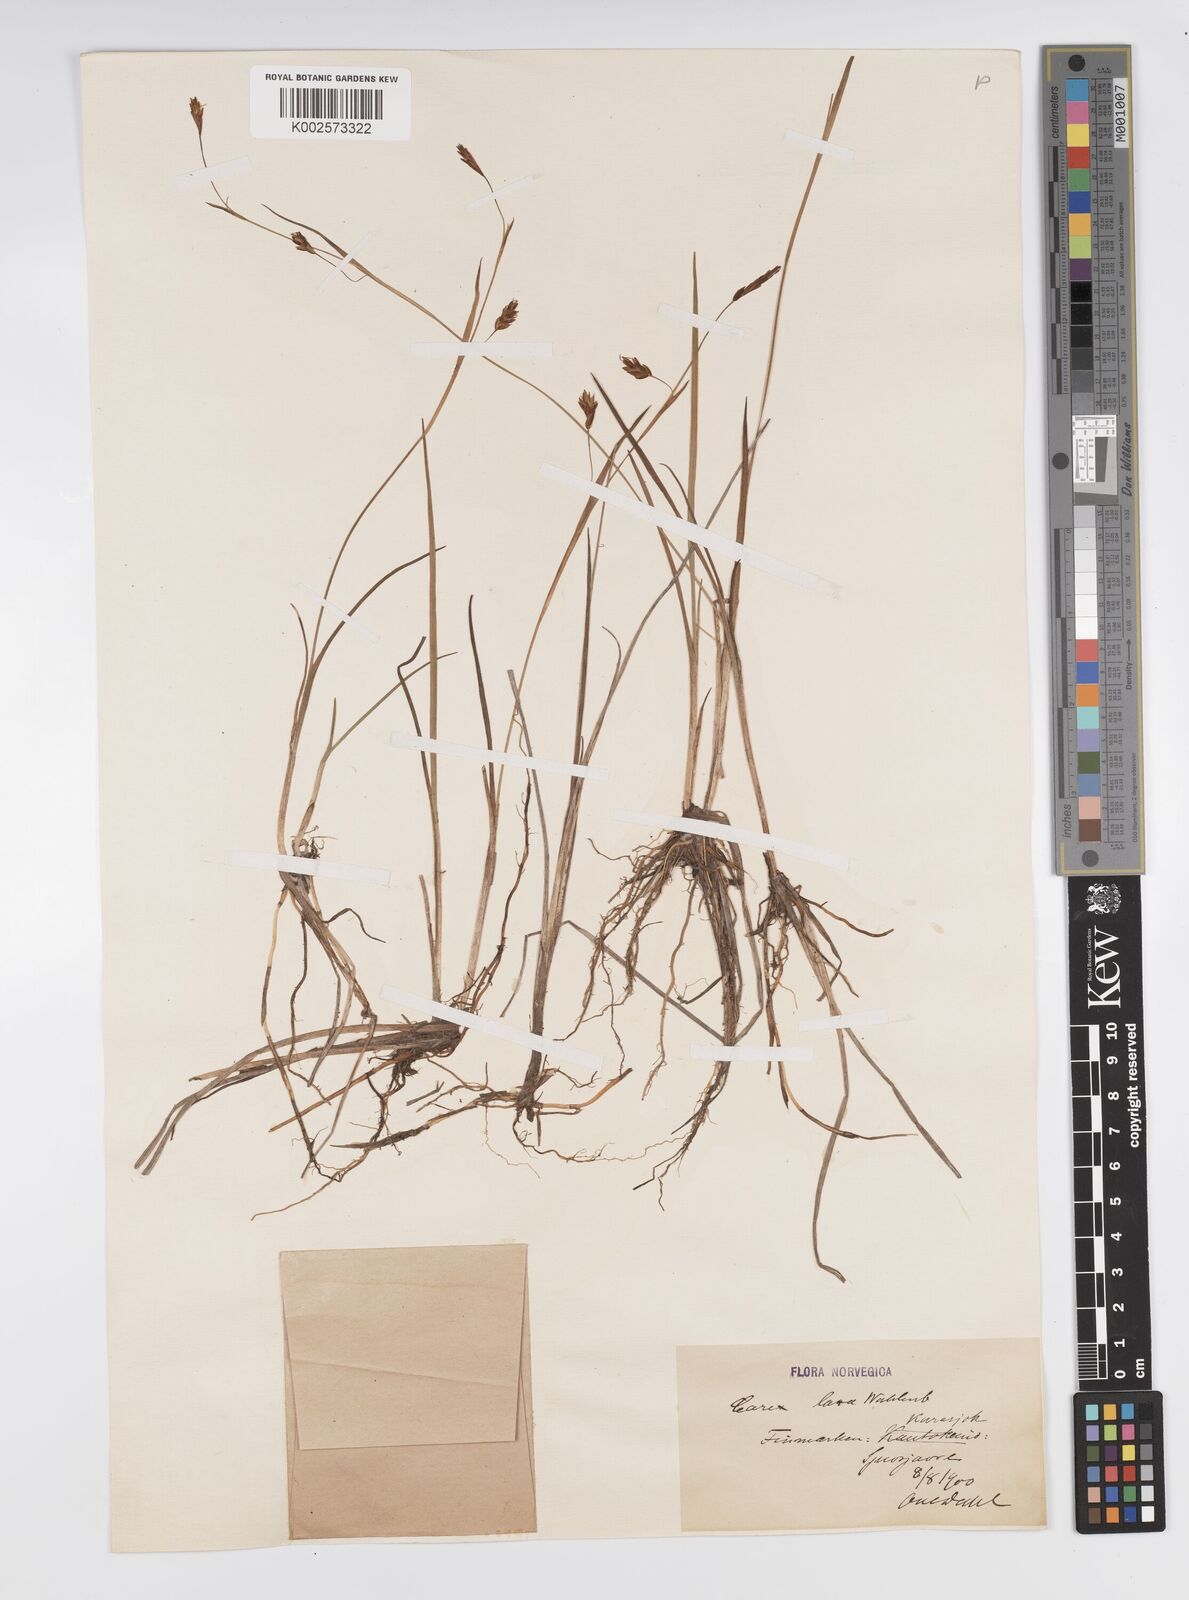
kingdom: Plantae
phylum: Tracheophyta
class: Liliopsida
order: Poales
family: Cyperaceae
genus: Carex
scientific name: Carex laxa
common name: Weak sedge
